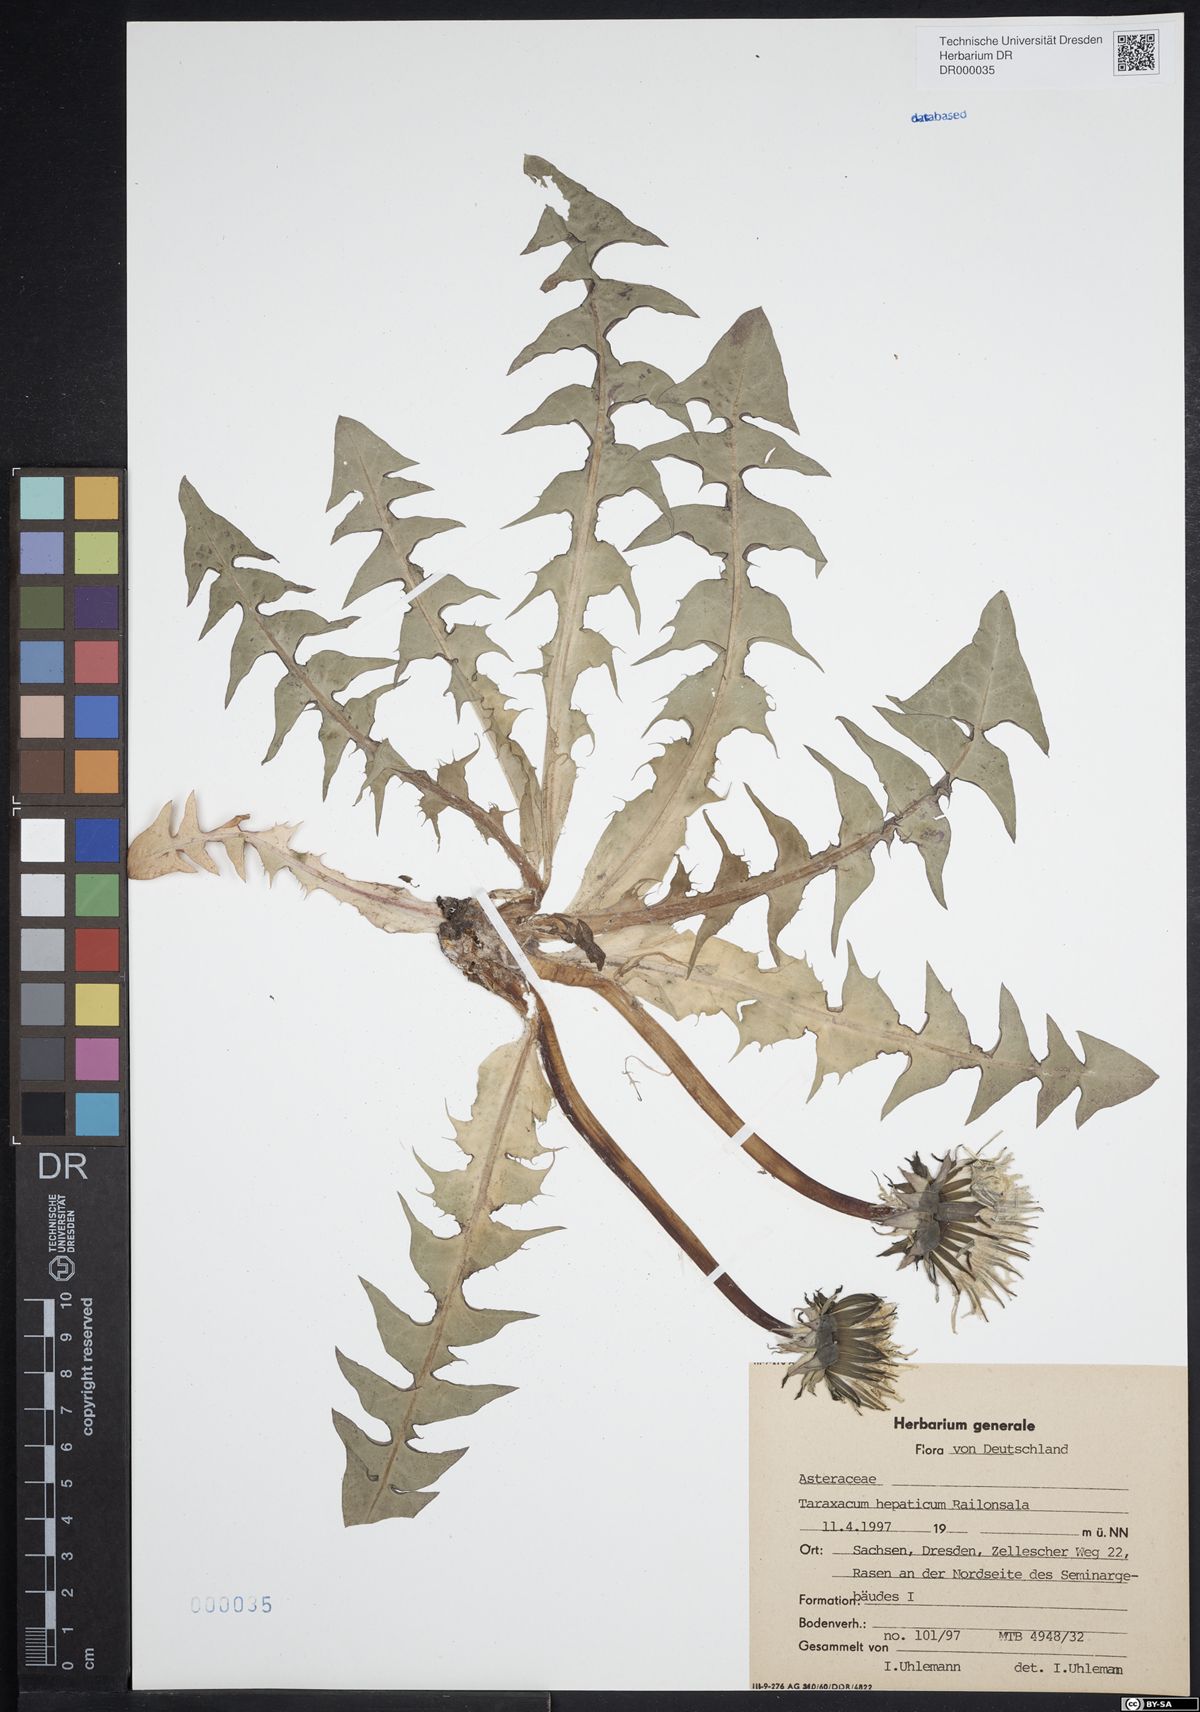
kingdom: Plantae
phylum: Tracheophyta
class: Magnoliopsida
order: Asterales
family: Asteraceae
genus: Taraxacum
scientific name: Taraxacum hepaticum
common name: Regular-lobed dandelion
